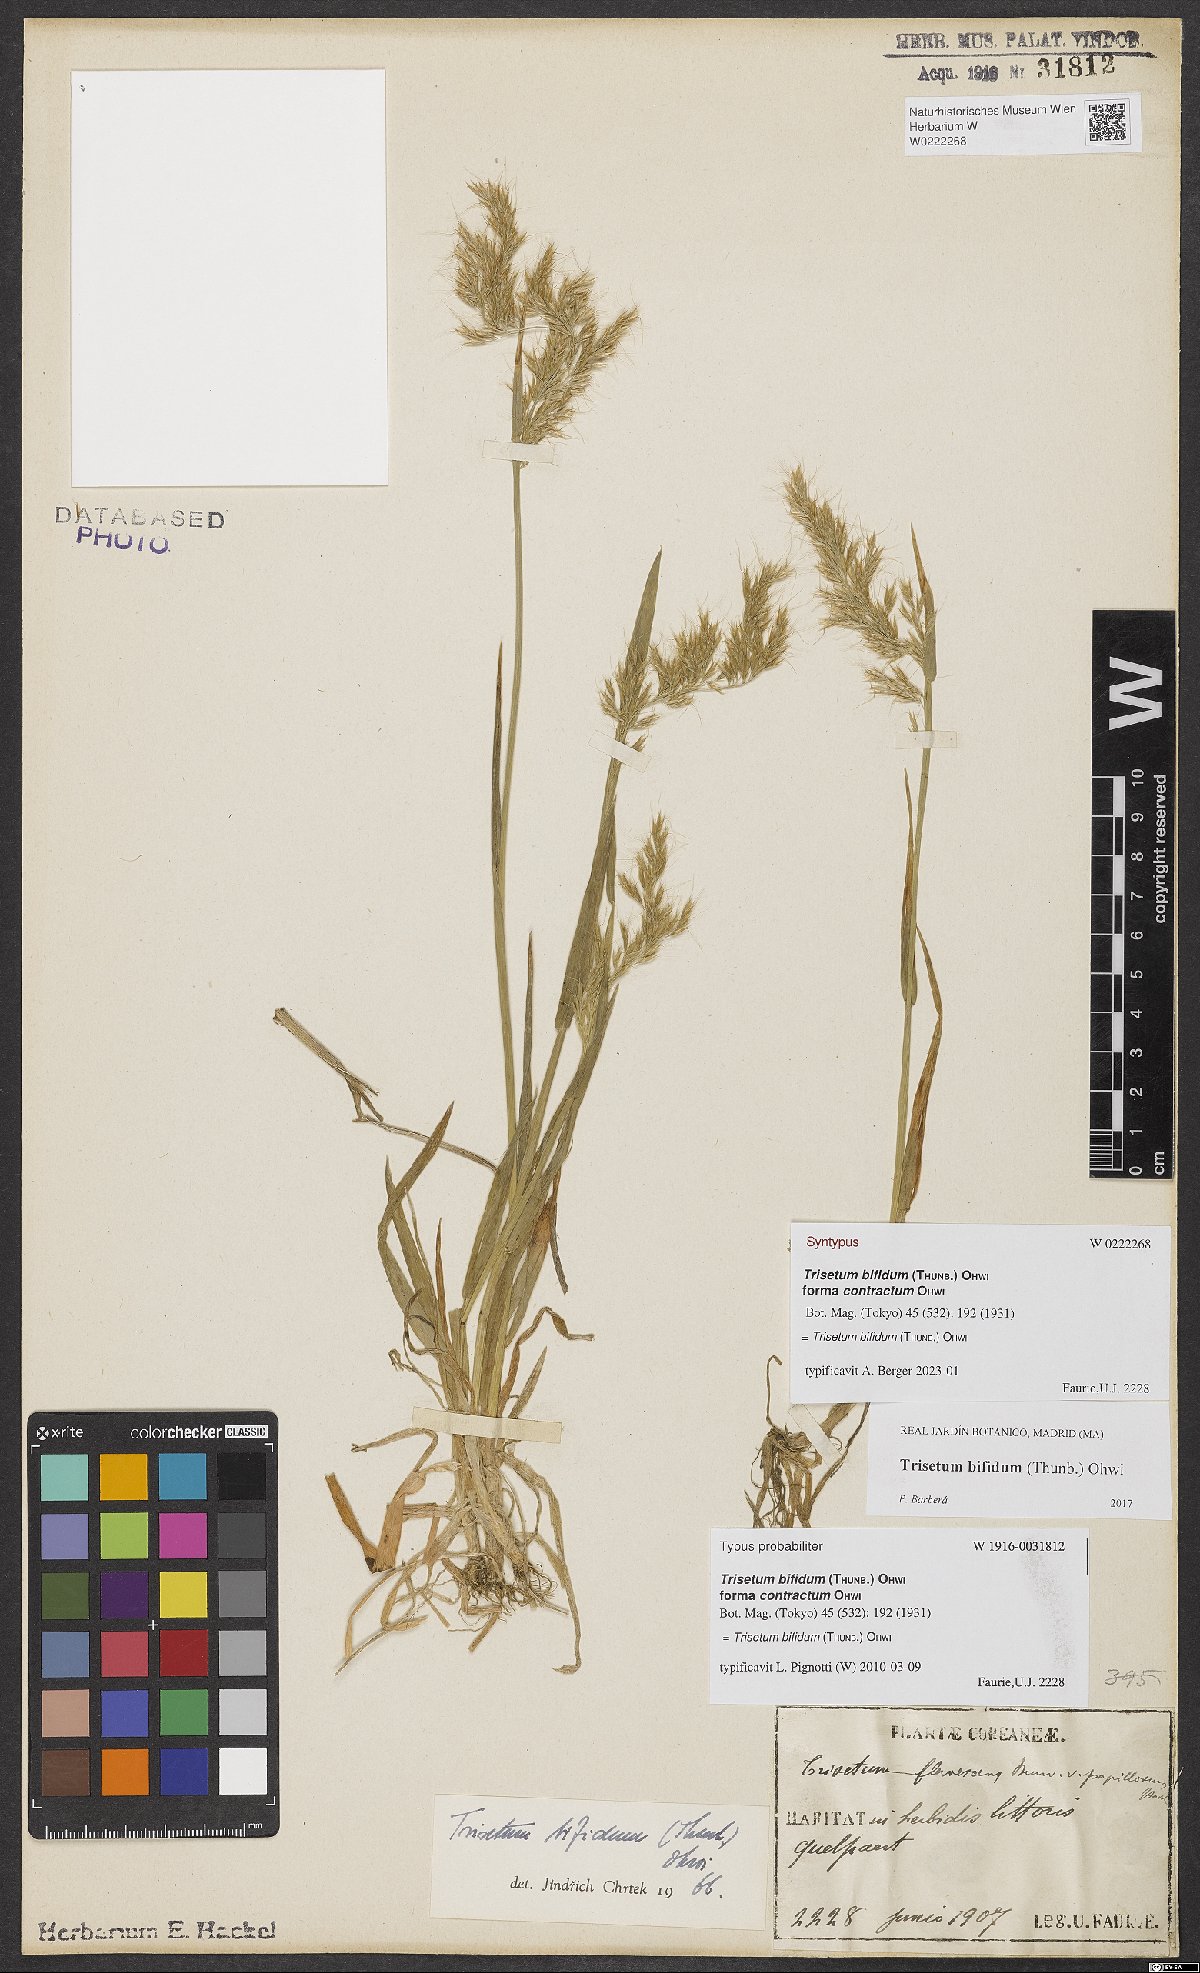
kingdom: Plantae
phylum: Tracheophyta
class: Liliopsida
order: Poales
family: Poaceae
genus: Sibirotrisetum
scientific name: Sibirotrisetum bifidum
